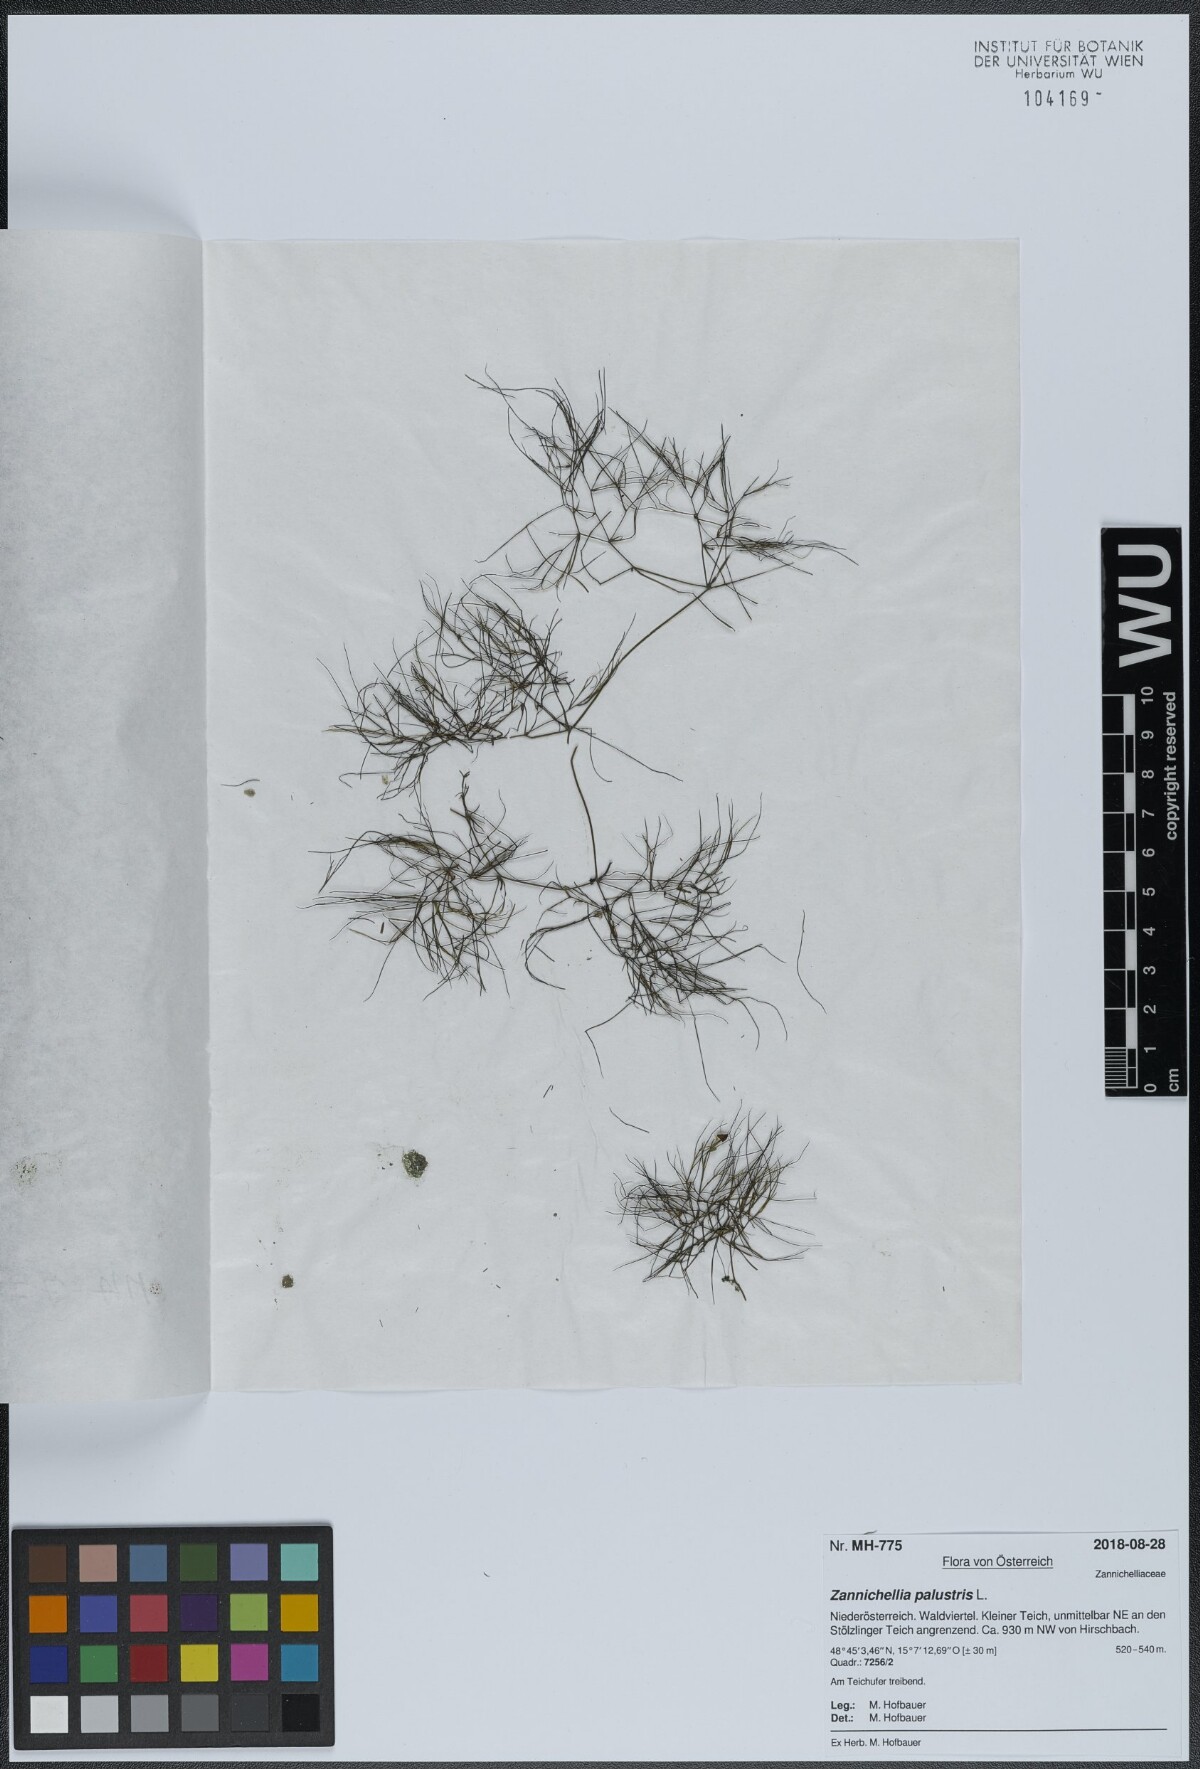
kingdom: Plantae
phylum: Tracheophyta
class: Liliopsida
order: Alismatales
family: Potamogetonaceae
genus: Zannichellia
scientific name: Zannichellia palustris
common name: Horned pondweed
